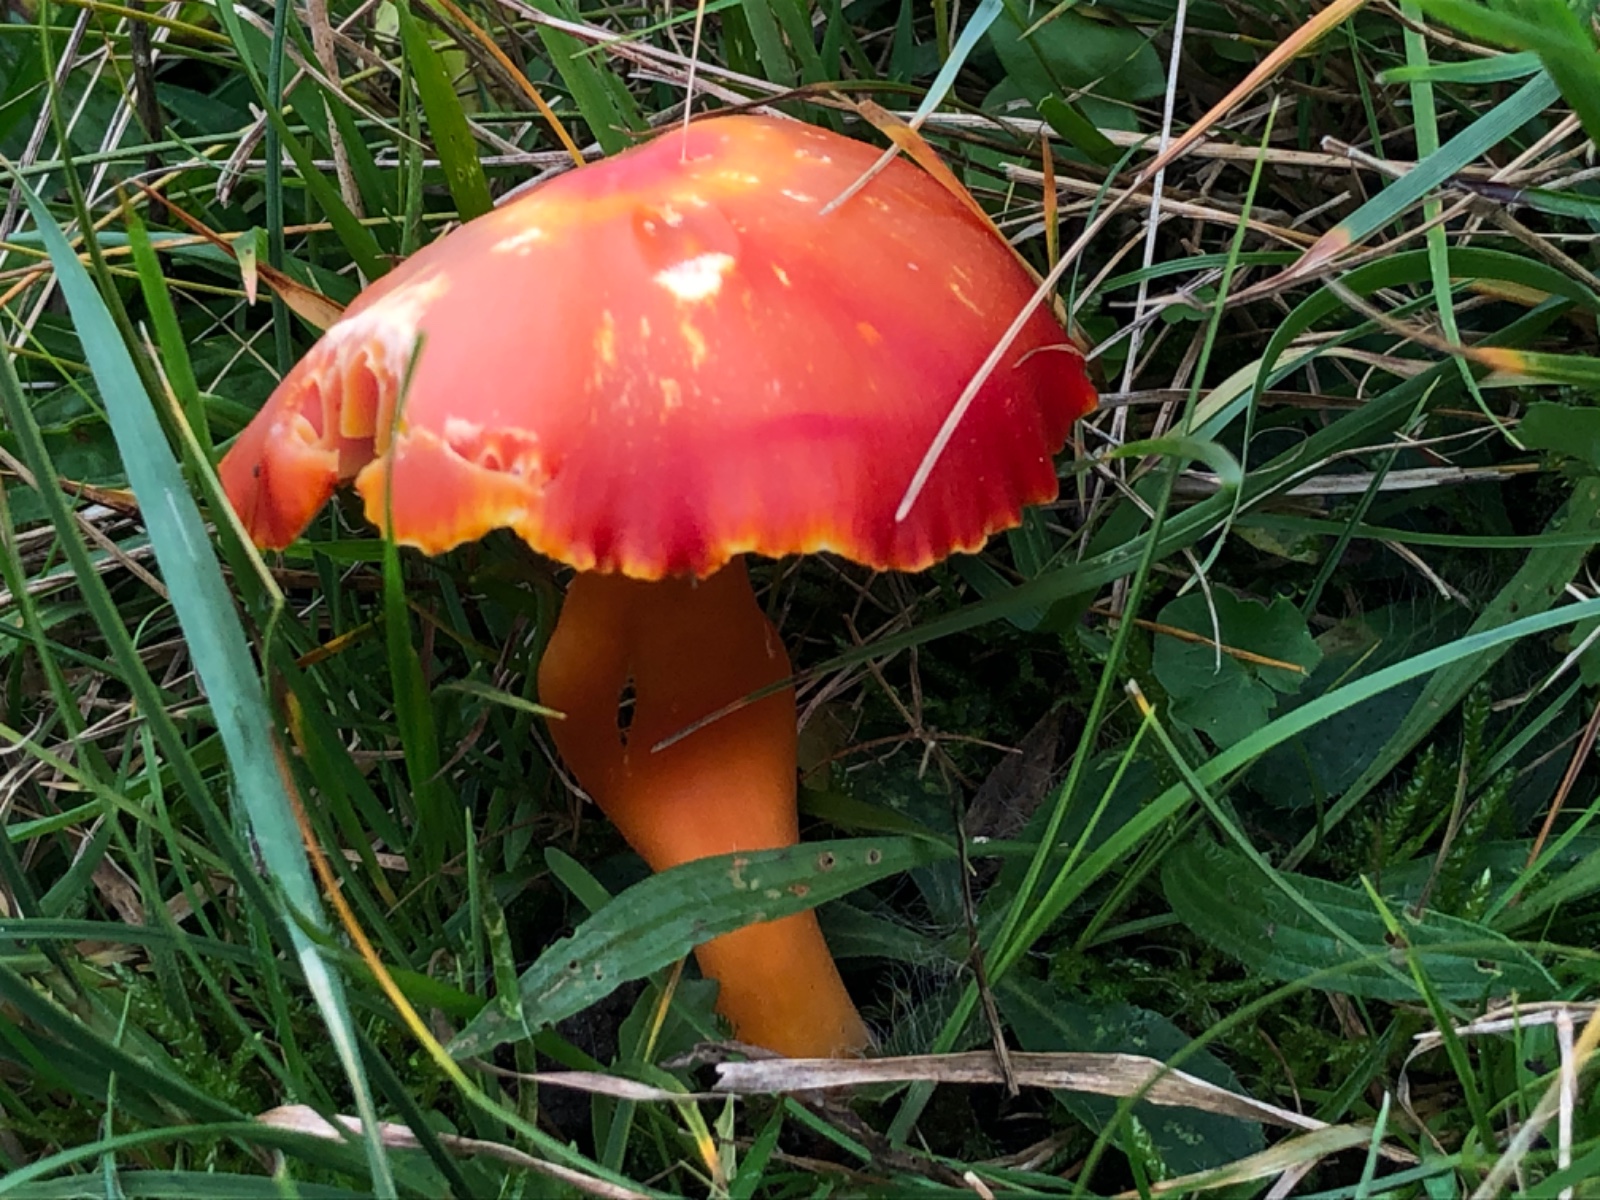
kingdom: Fungi
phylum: Basidiomycota
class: Agaricomycetes
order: Agaricales
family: Hygrophoraceae
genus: Hygrocybe
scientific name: Hygrocybe coccinea
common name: cinnober-vokshat
